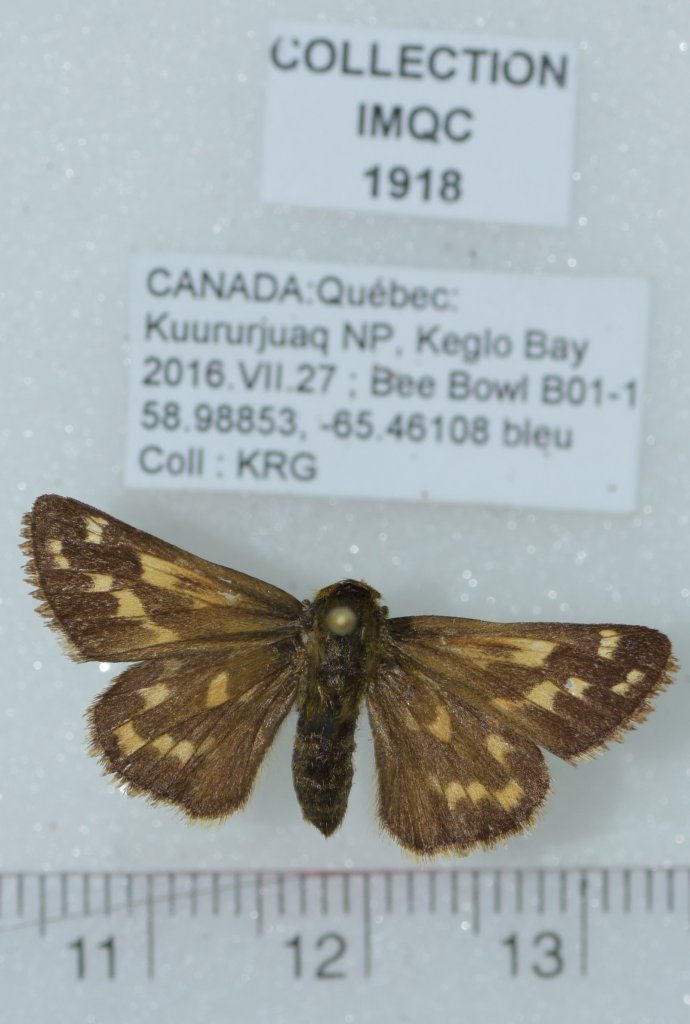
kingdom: Animalia
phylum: Arthropoda
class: Insecta
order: Lepidoptera
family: Hesperiidae
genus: Hesperia
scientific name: Hesperia comma
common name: Common Branded Skipper
